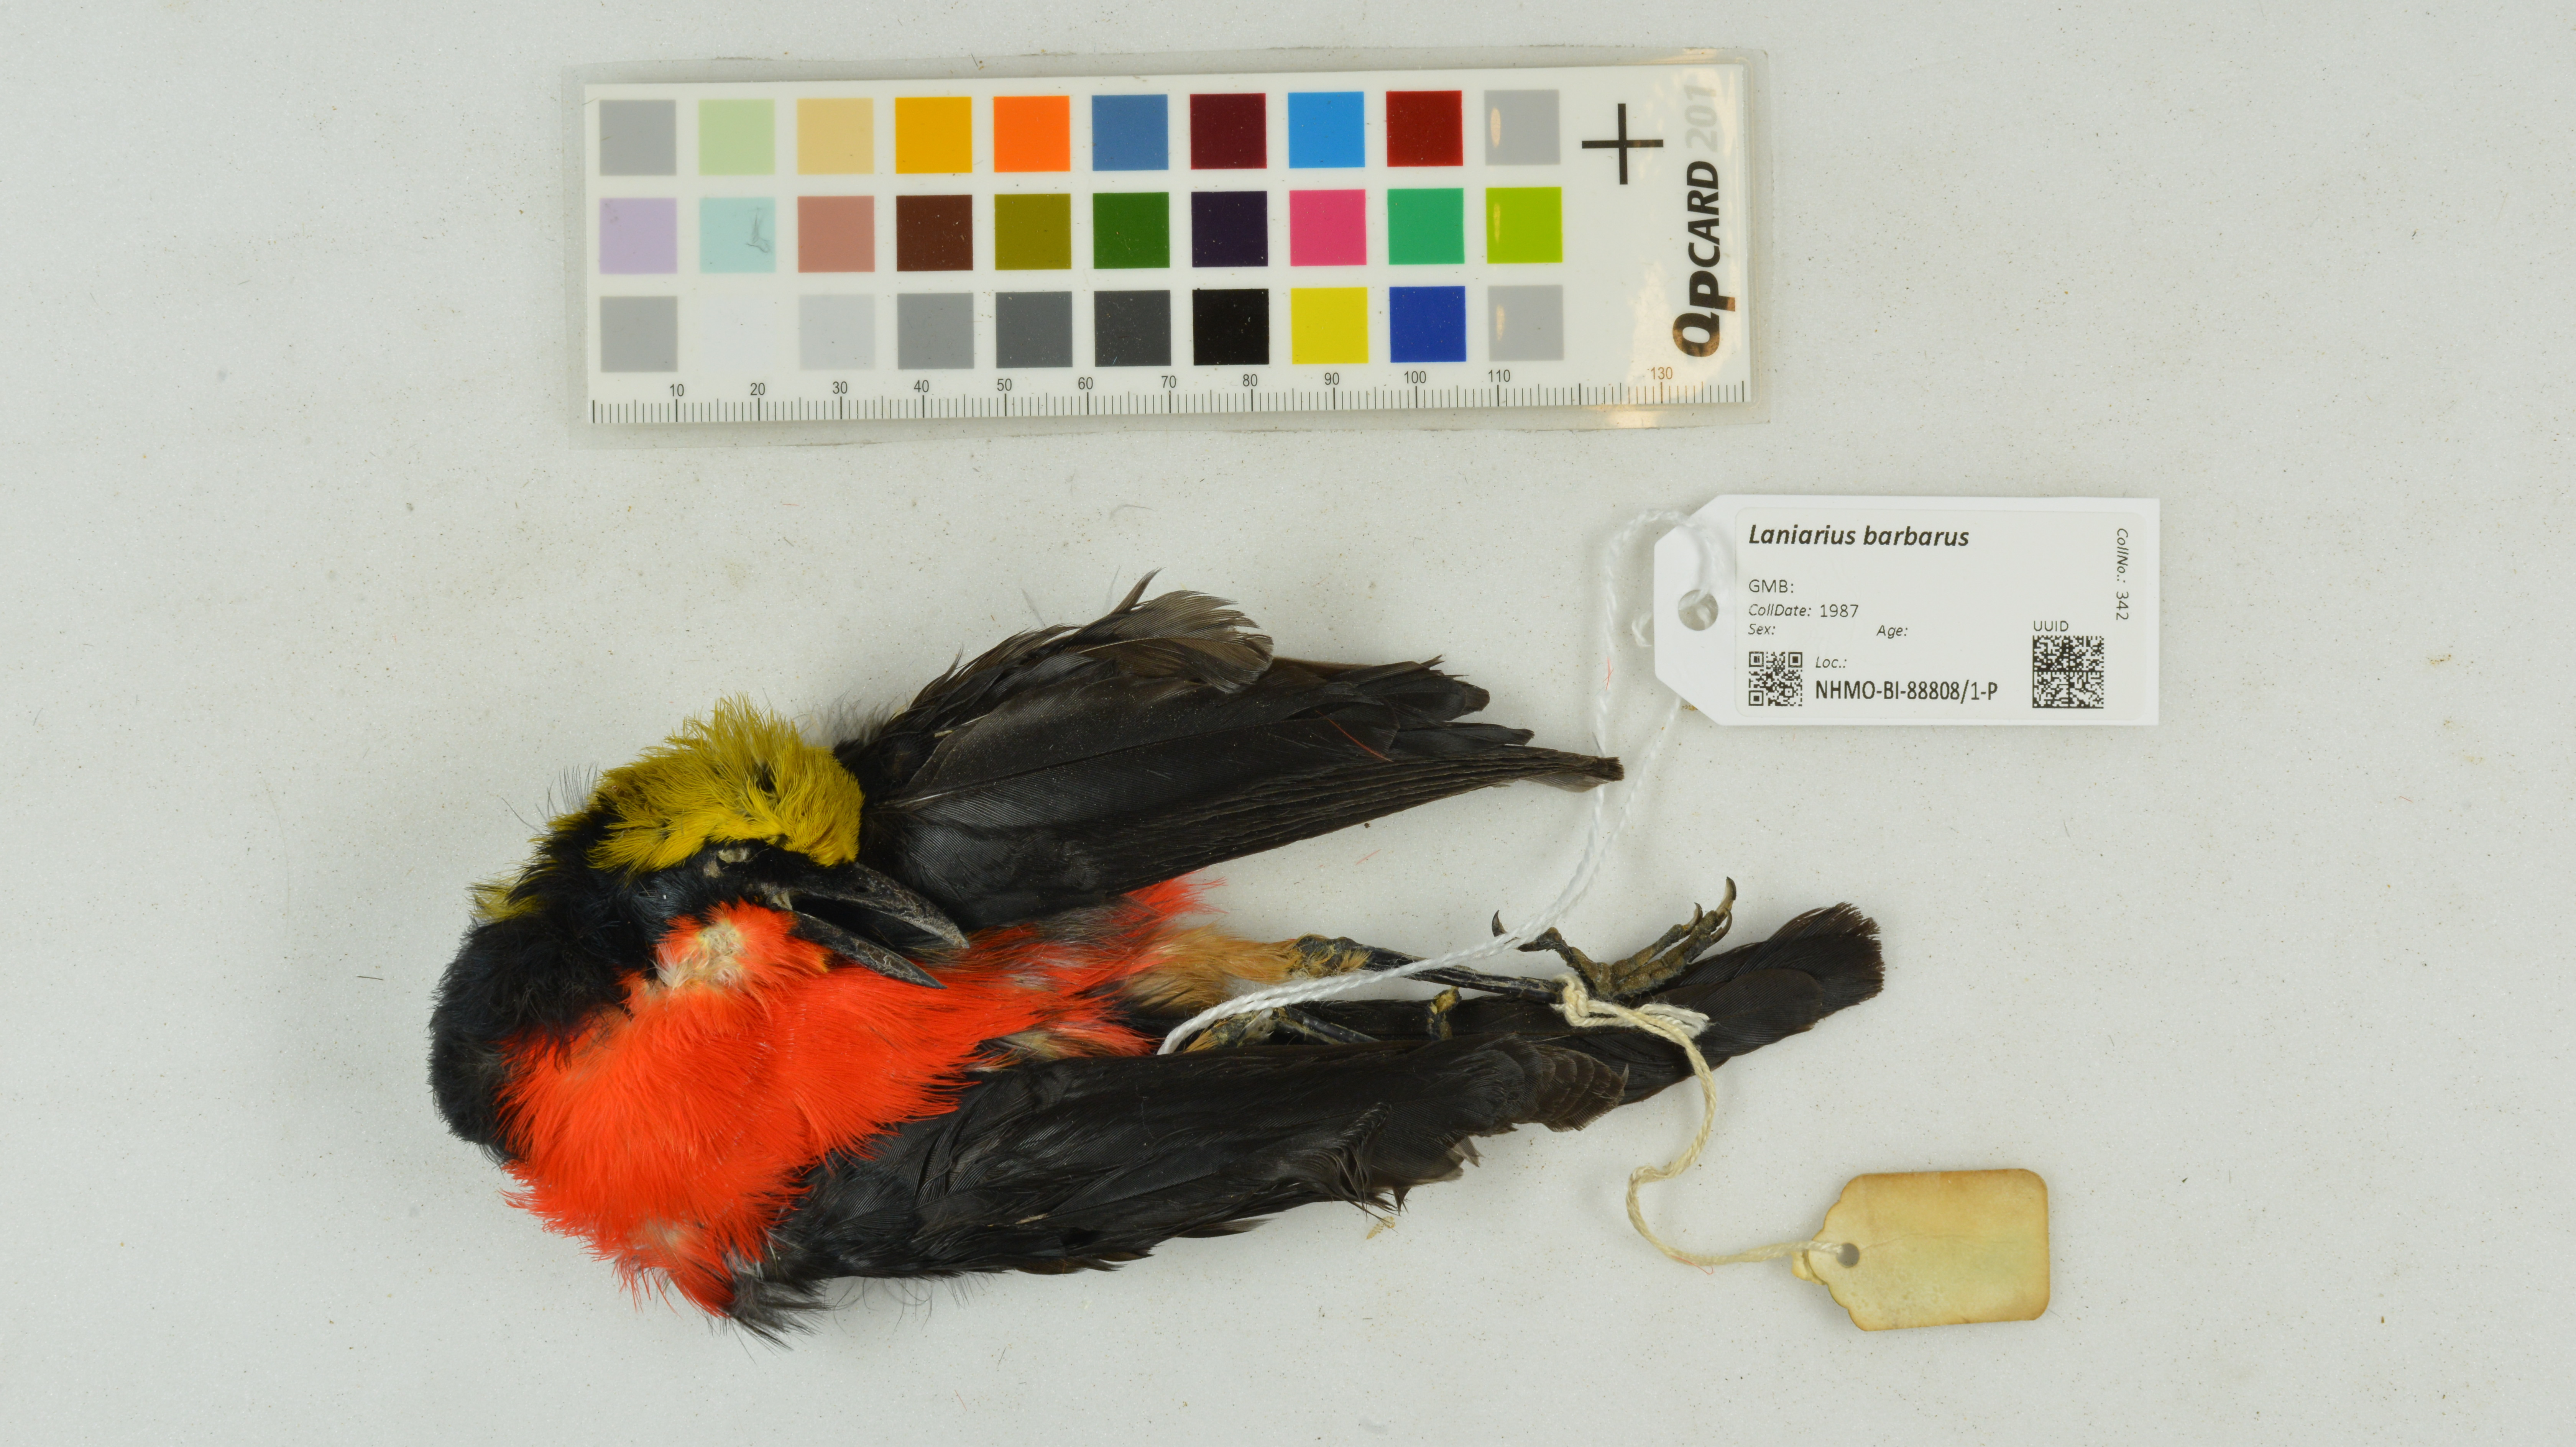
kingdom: Animalia
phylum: Chordata
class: Aves
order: Passeriformes
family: Malaconotidae
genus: Laniarius
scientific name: Laniarius barbarus
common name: Yellow-crowned gonolek
